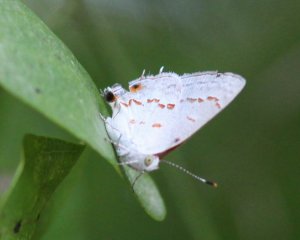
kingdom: Animalia
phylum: Arthropoda
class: Insecta
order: Lepidoptera
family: Lycaenidae
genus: Ministrymon
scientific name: Ministrymon clytie
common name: Clytie Ministreak
